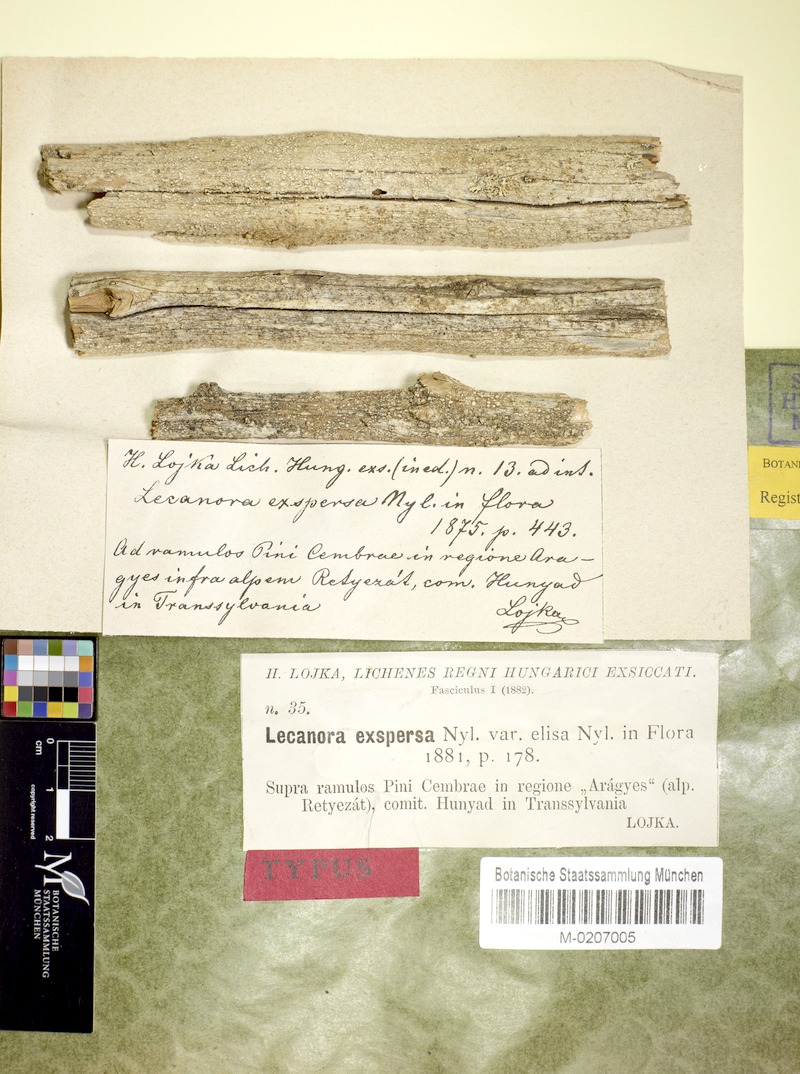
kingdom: Fungi
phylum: Ascomycota
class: Lecanoromycetes
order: Lecanorales
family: Lecanoraceae
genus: Lecanora
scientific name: Lecanora exspersa
